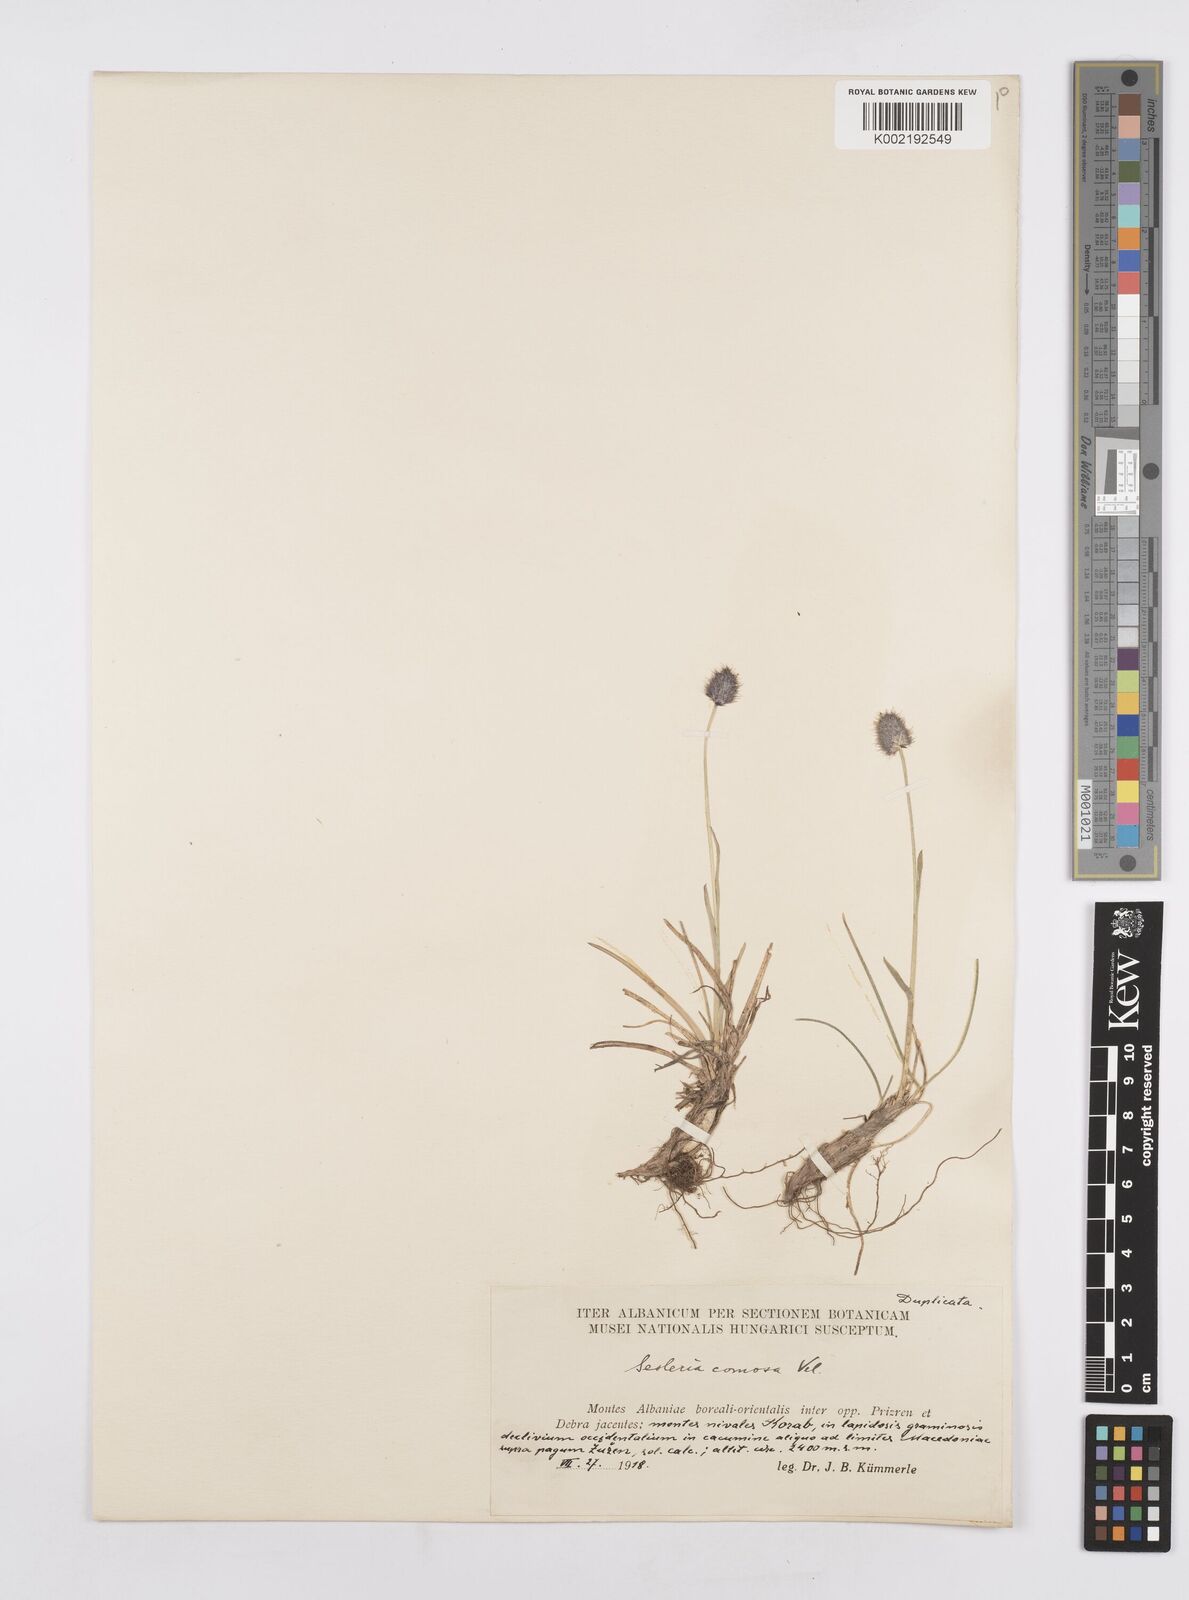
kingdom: Plantae
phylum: Tracheophyta
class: Liliopsida
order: Poales
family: Poaceae
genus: Sesleria
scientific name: Sesleria comosa
